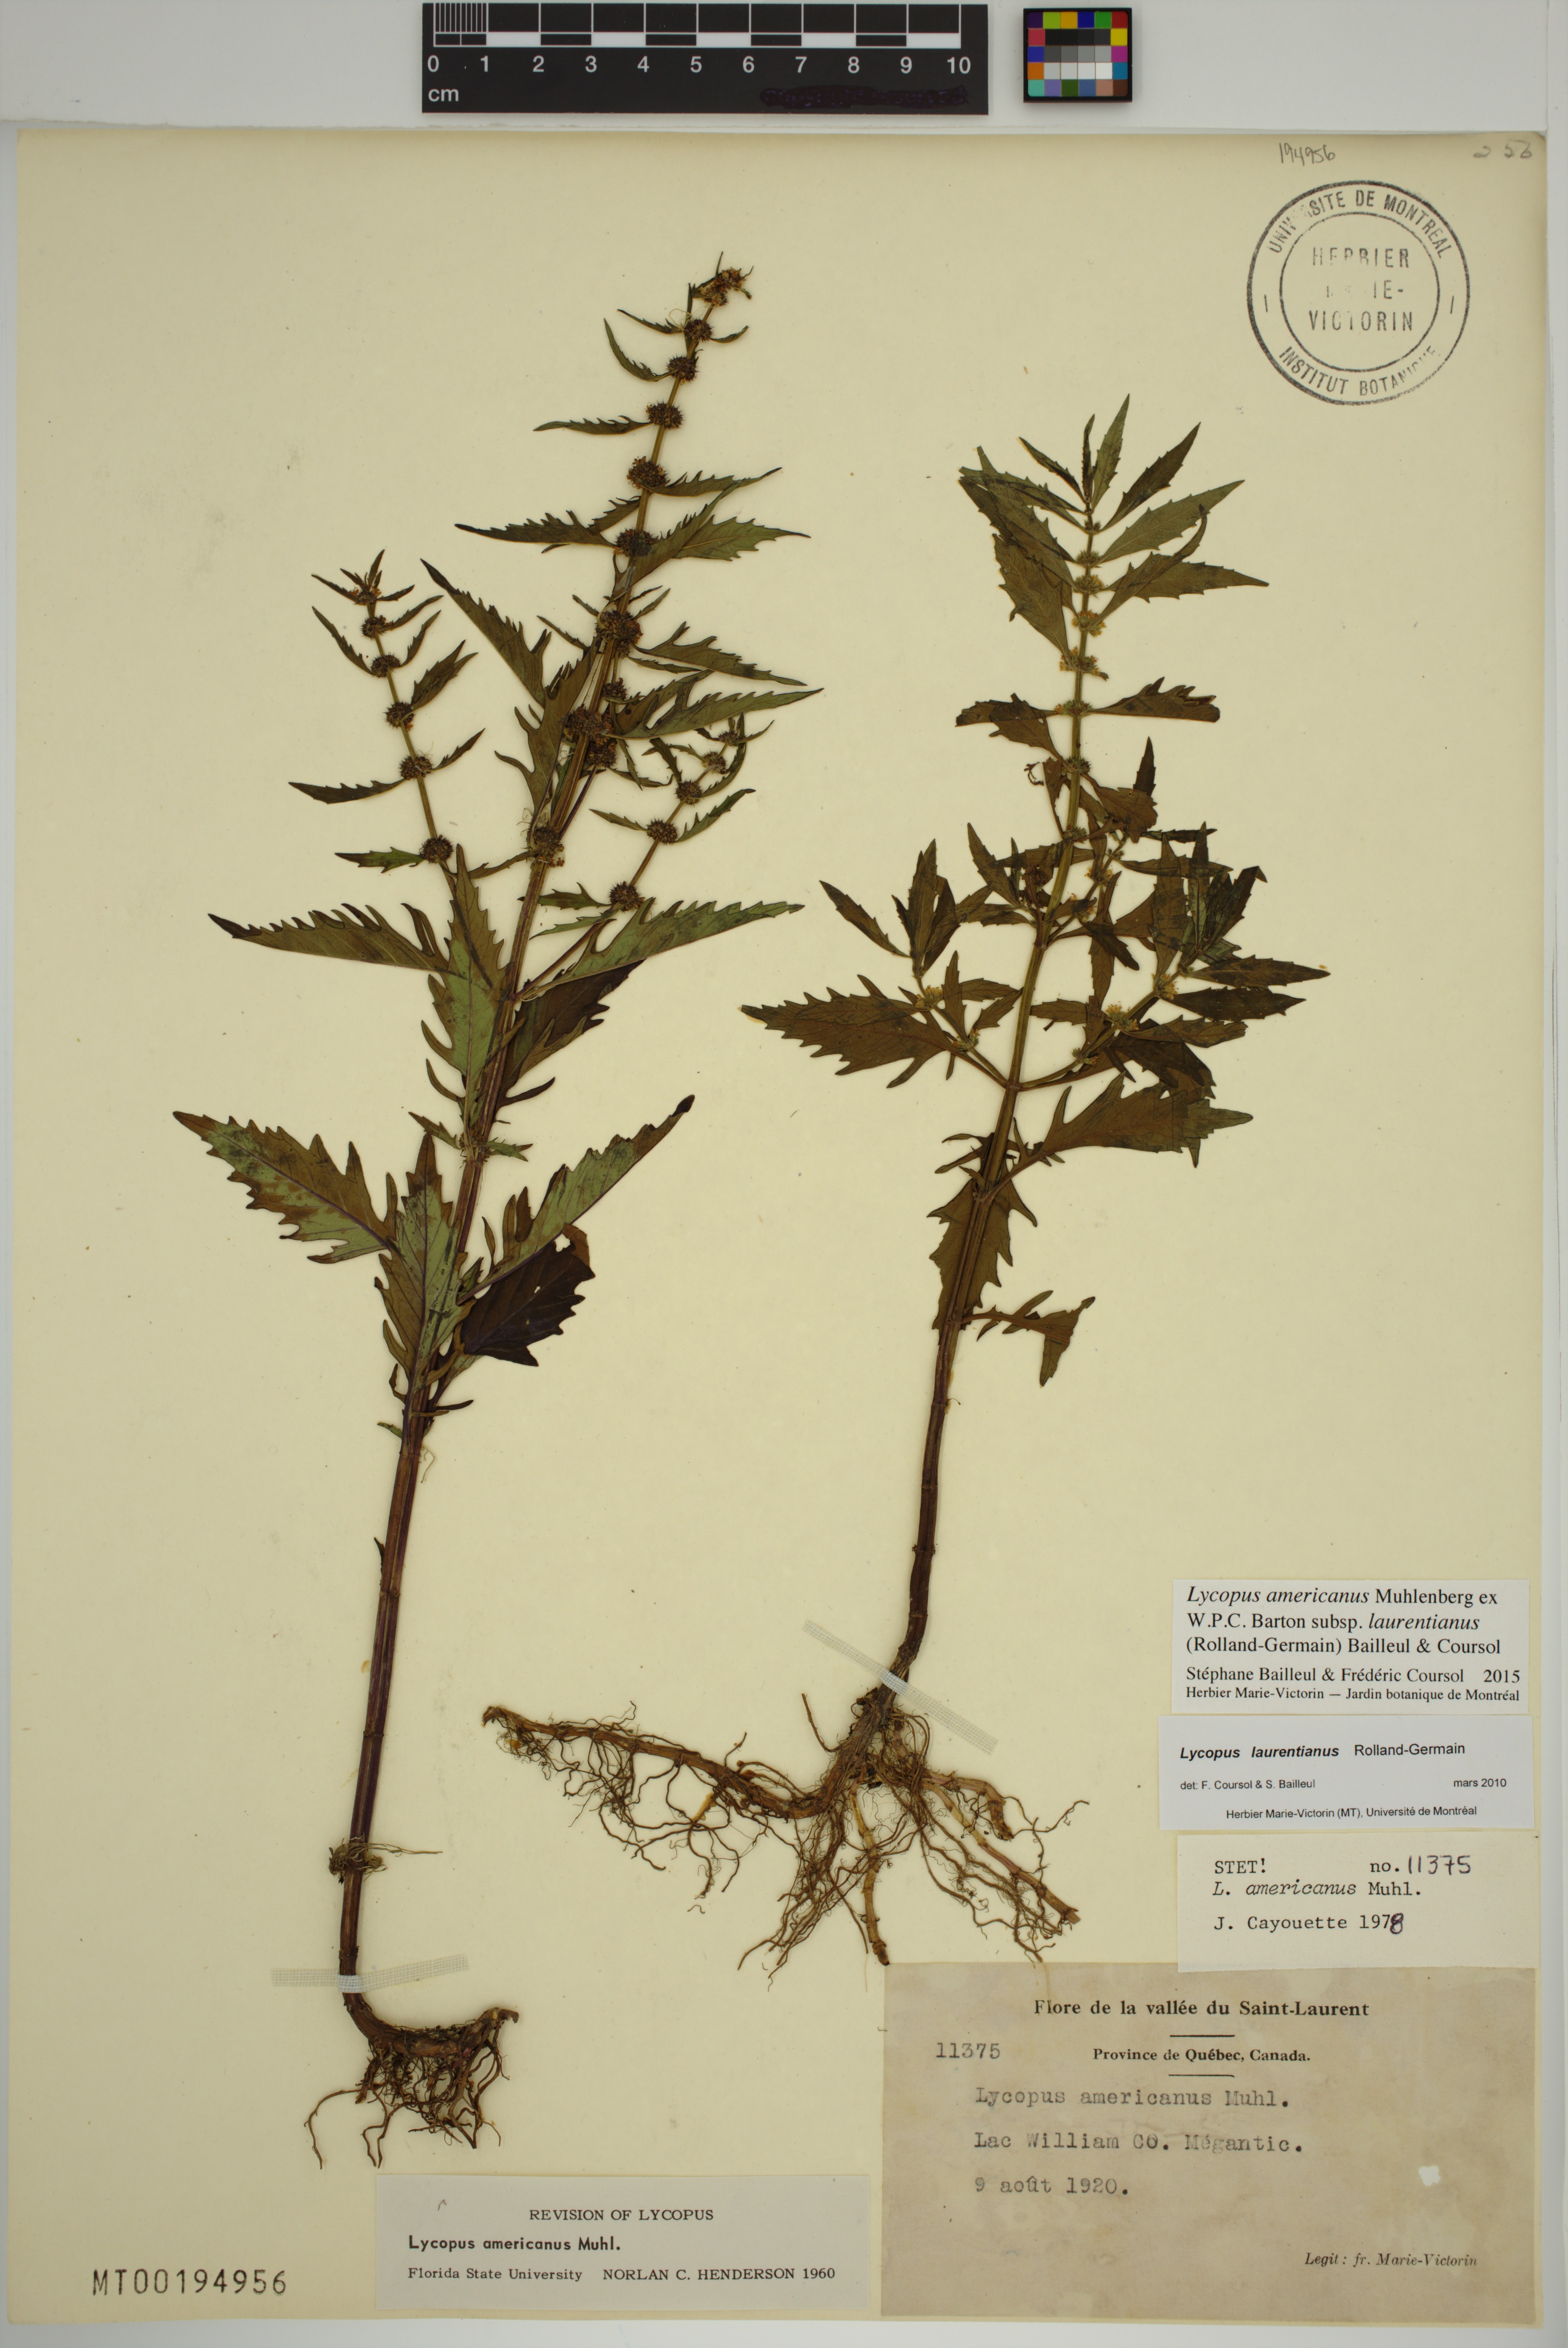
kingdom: Plantae
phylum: Tracheophyta
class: Magnoliopsida
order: Lamiales
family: Lamiaceae
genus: Lycopus
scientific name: Lycopus americanus
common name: American bugleweed
